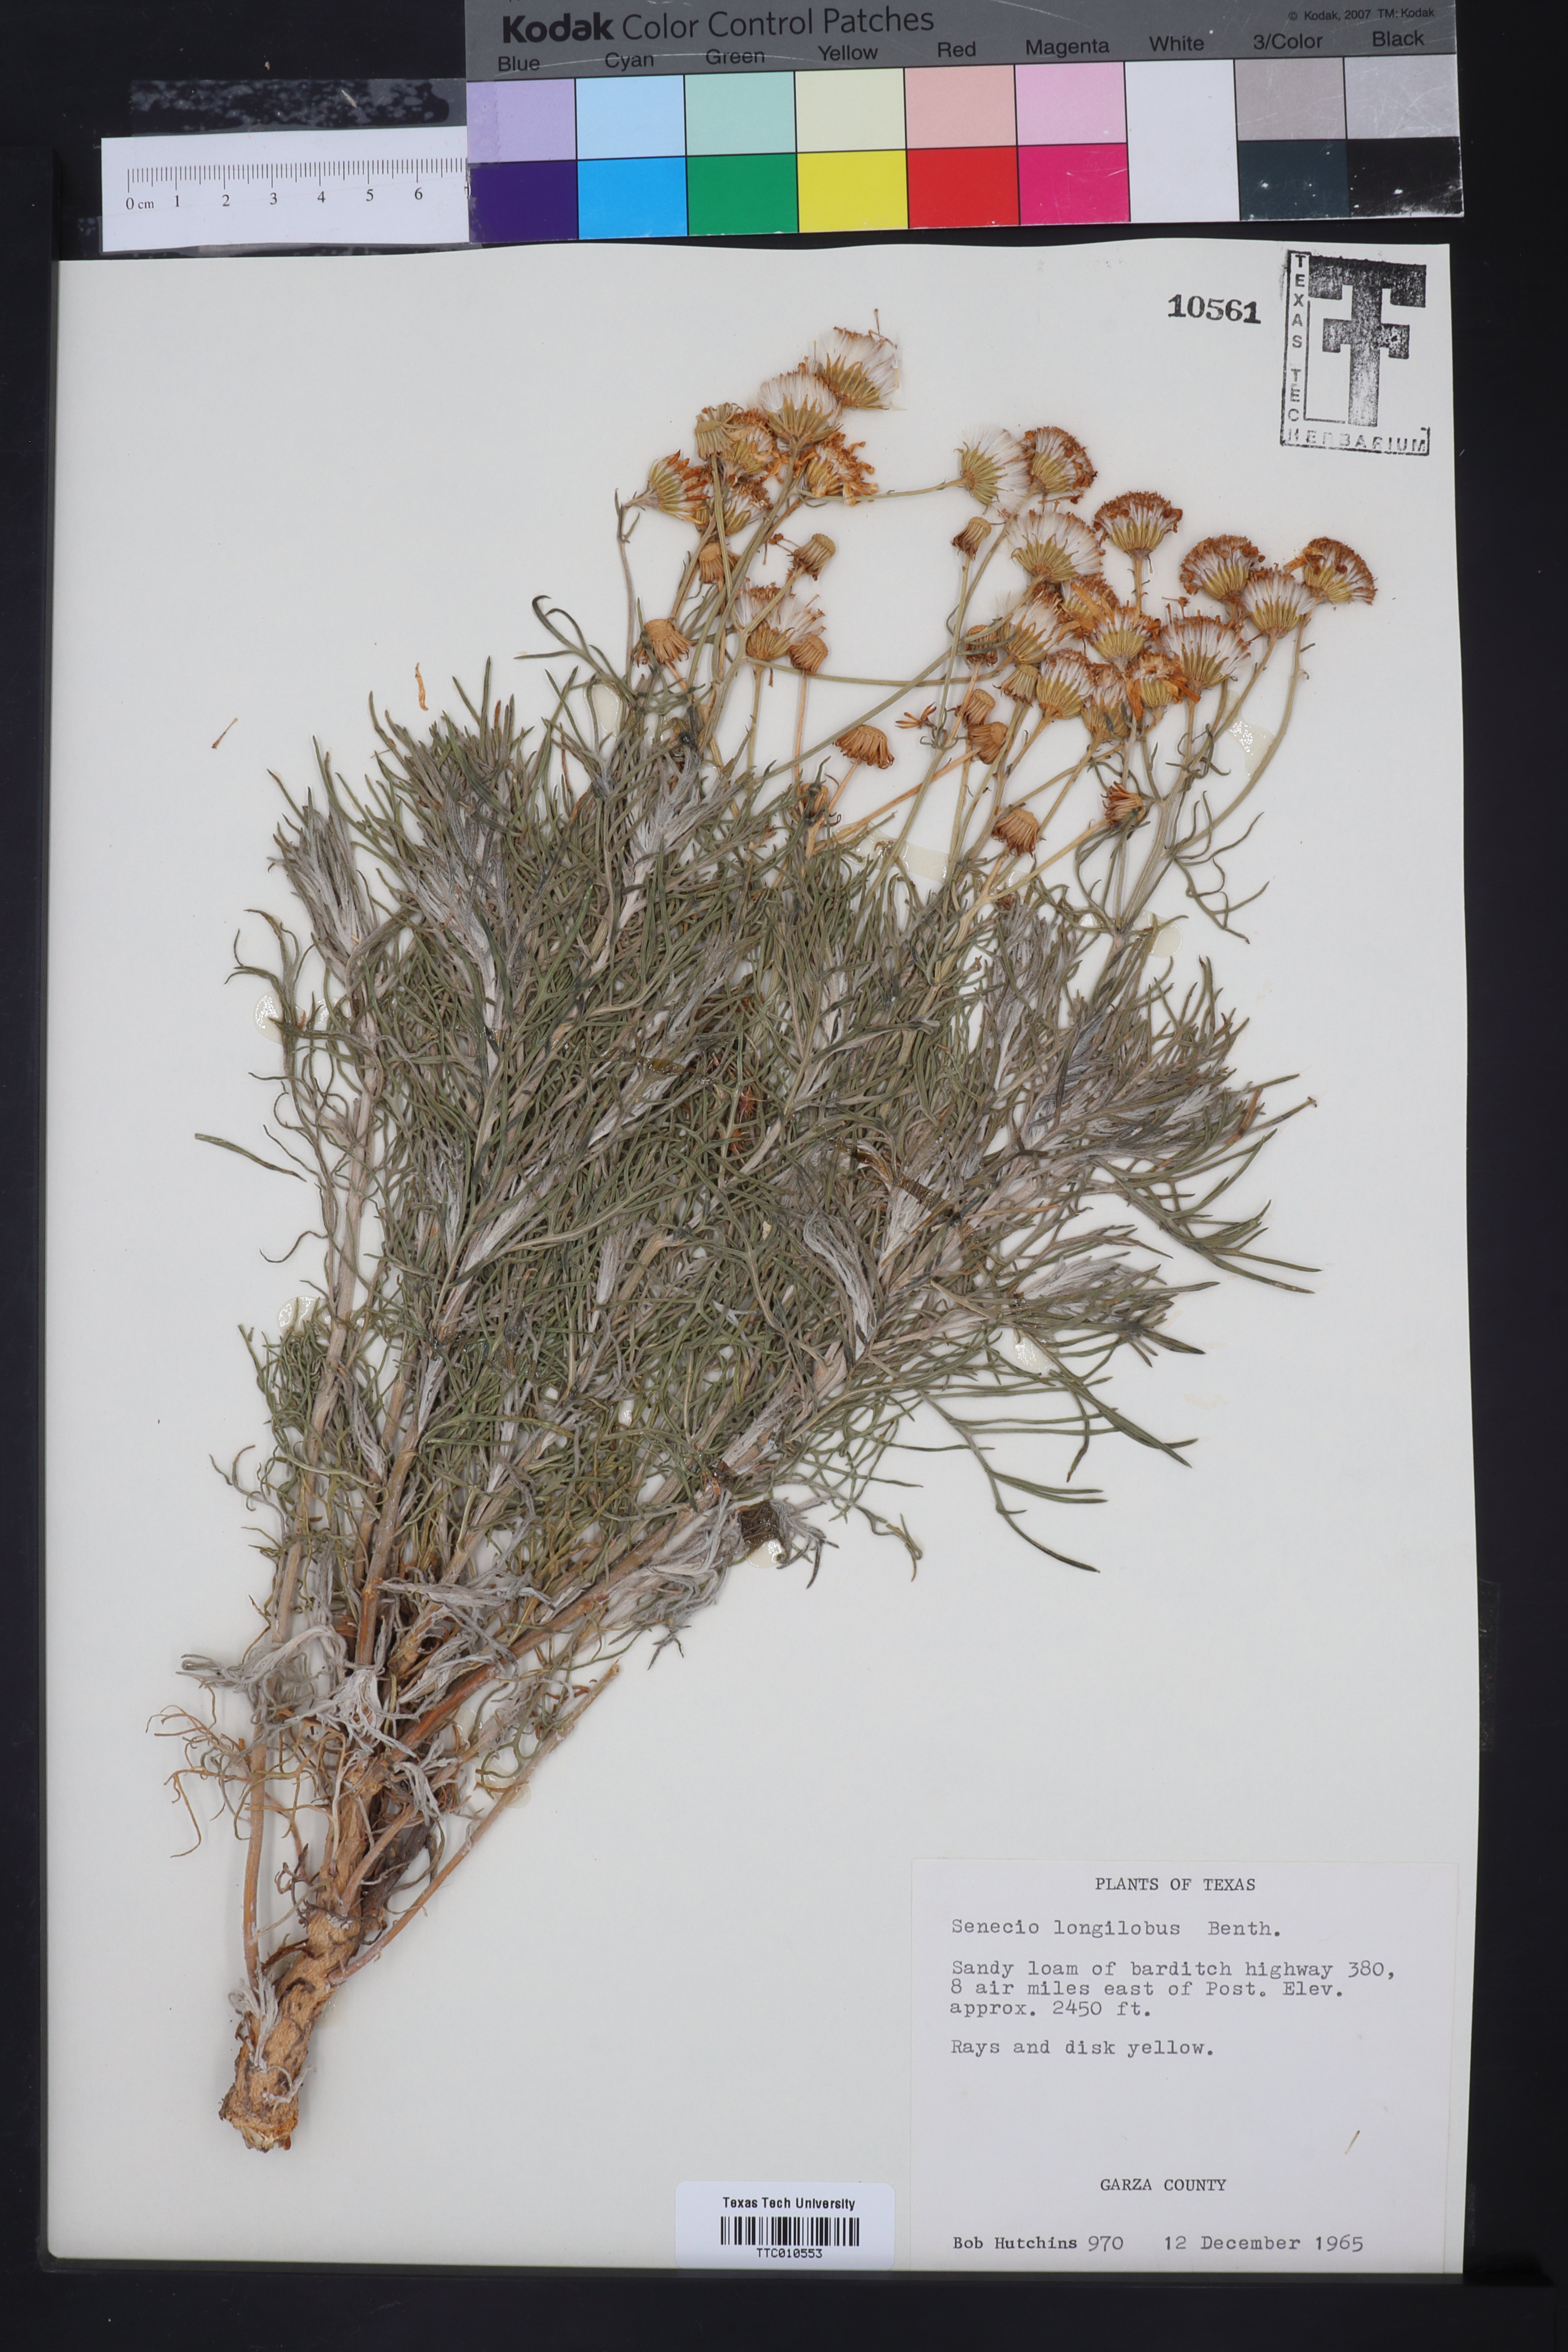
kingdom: Plantae
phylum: Tracheophyta
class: Magnoliopsida
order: Asterales
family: Asteraceae
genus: Senecio
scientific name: Senecio flaccidus
